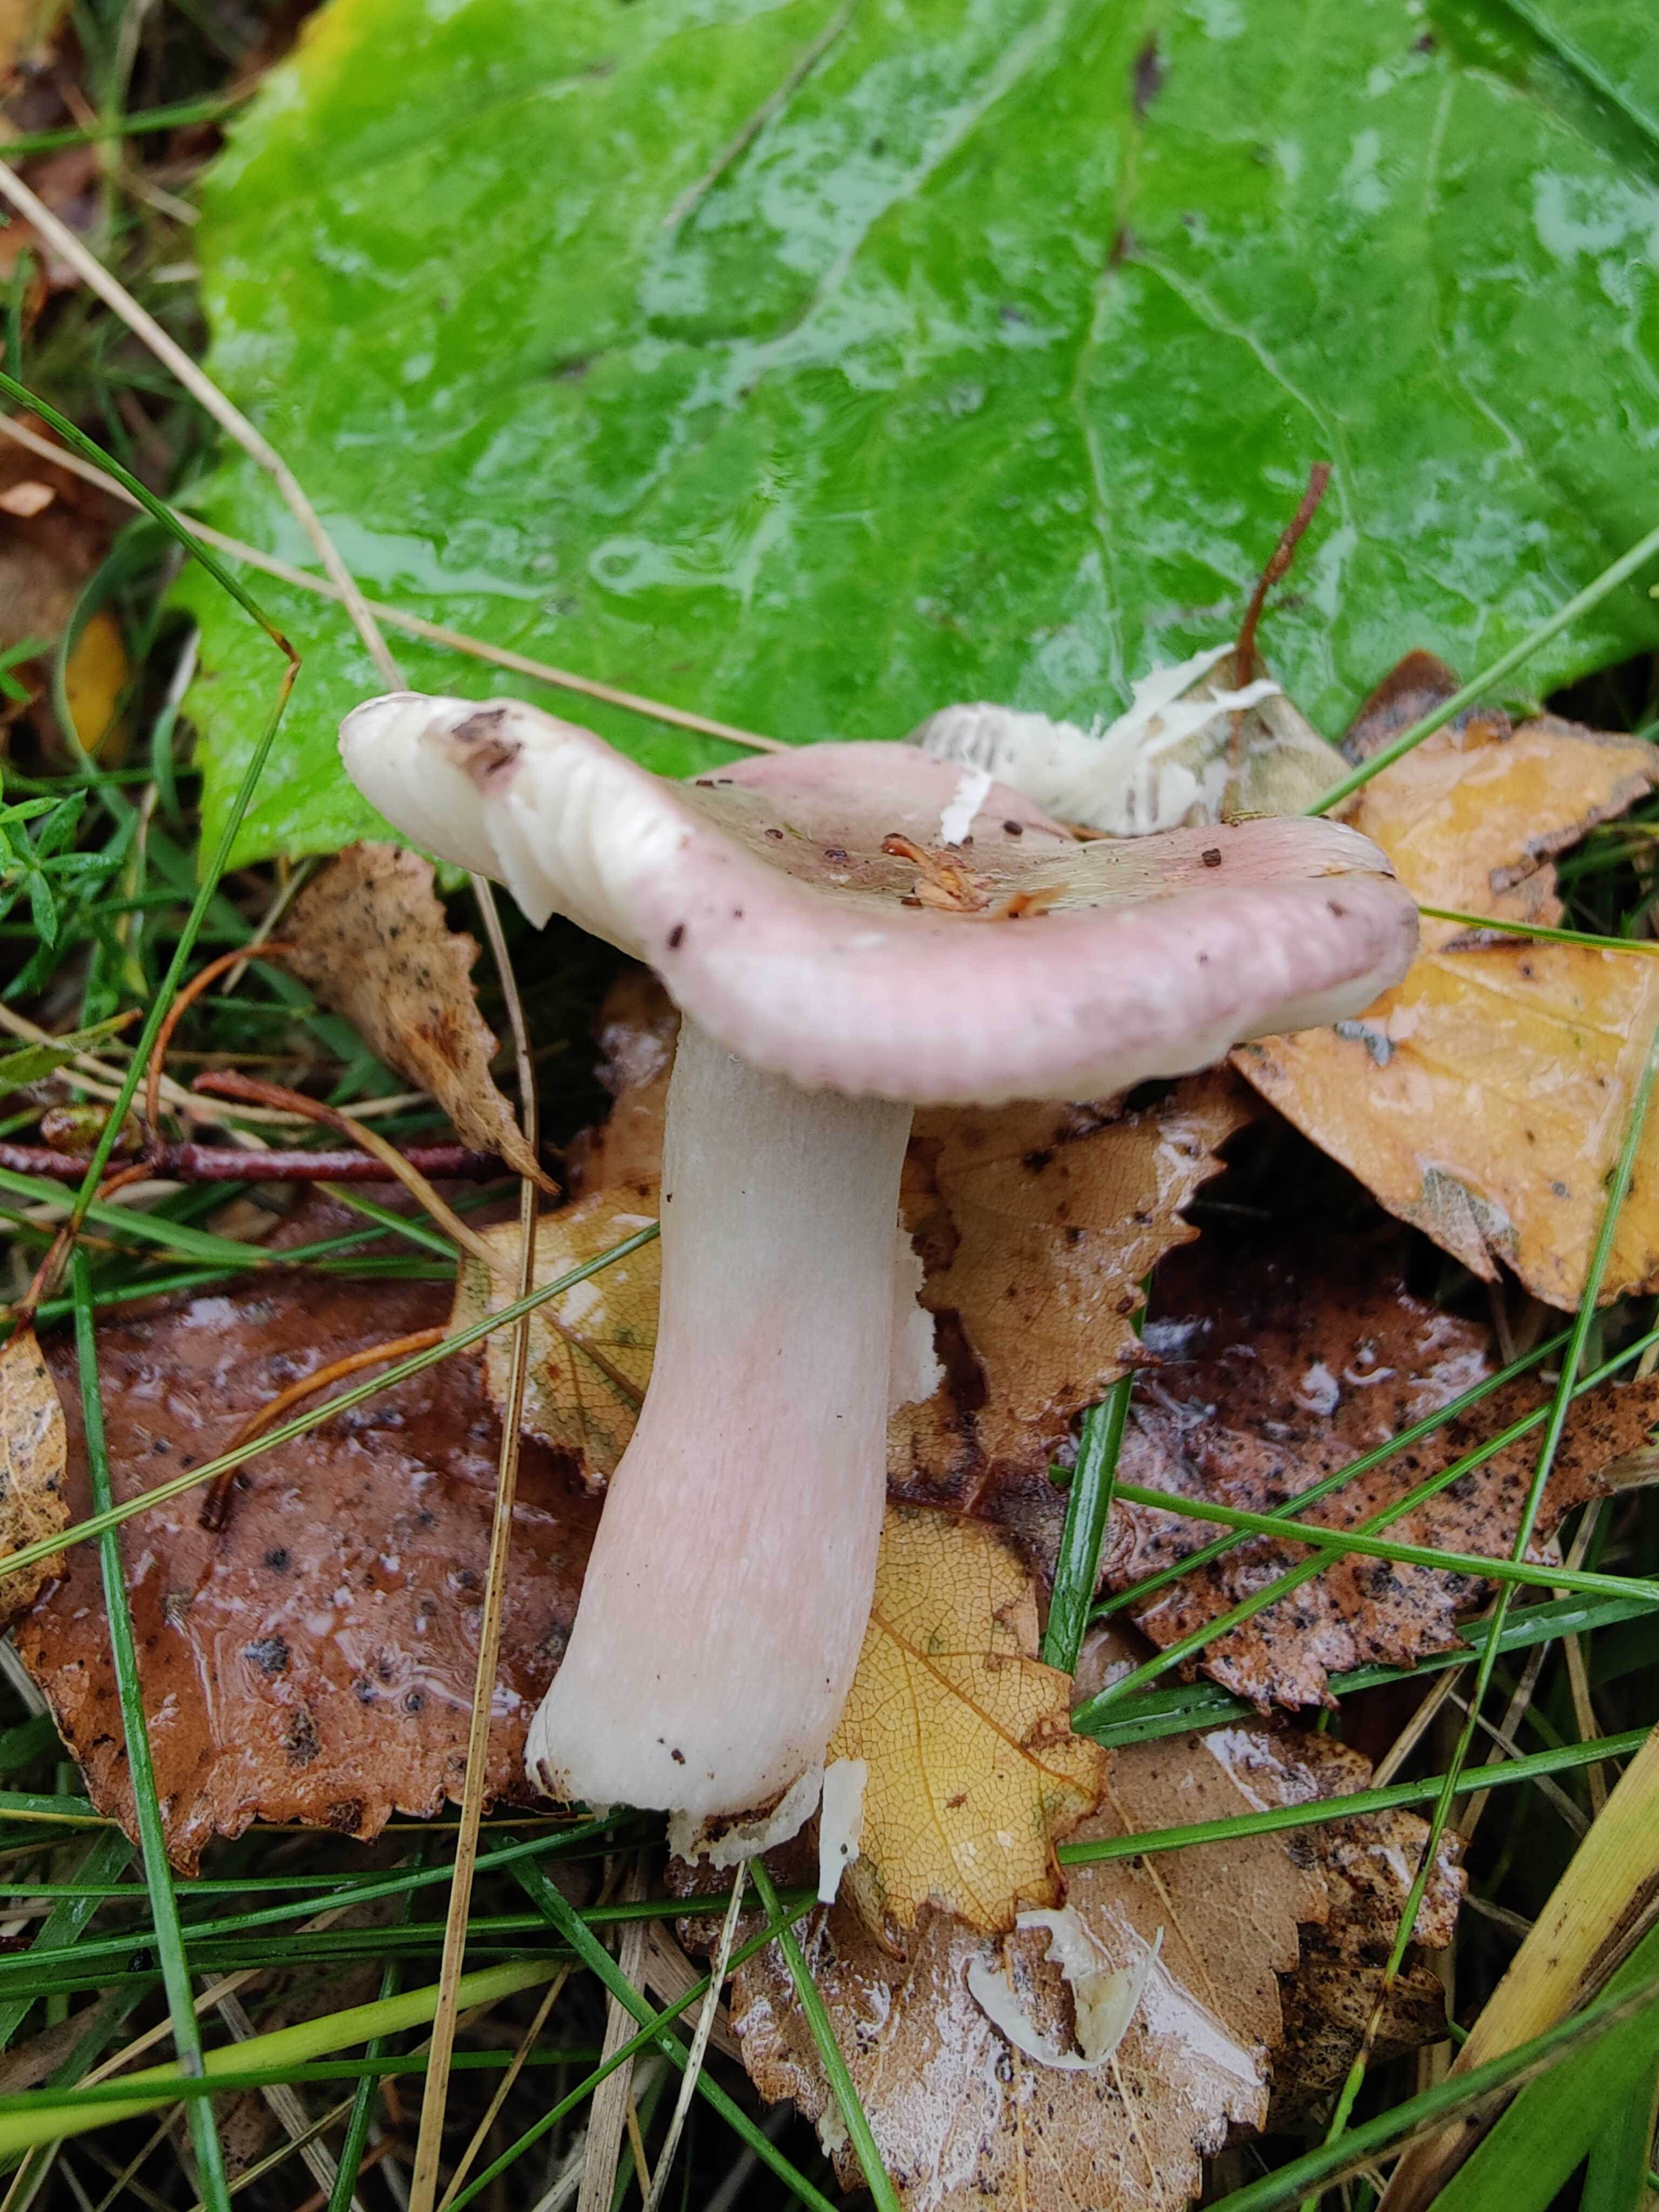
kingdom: Fungi
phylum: Basidiomycota
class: Agaricomycetes
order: Russulales
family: Russulaceae
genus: Russula
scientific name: Russula
